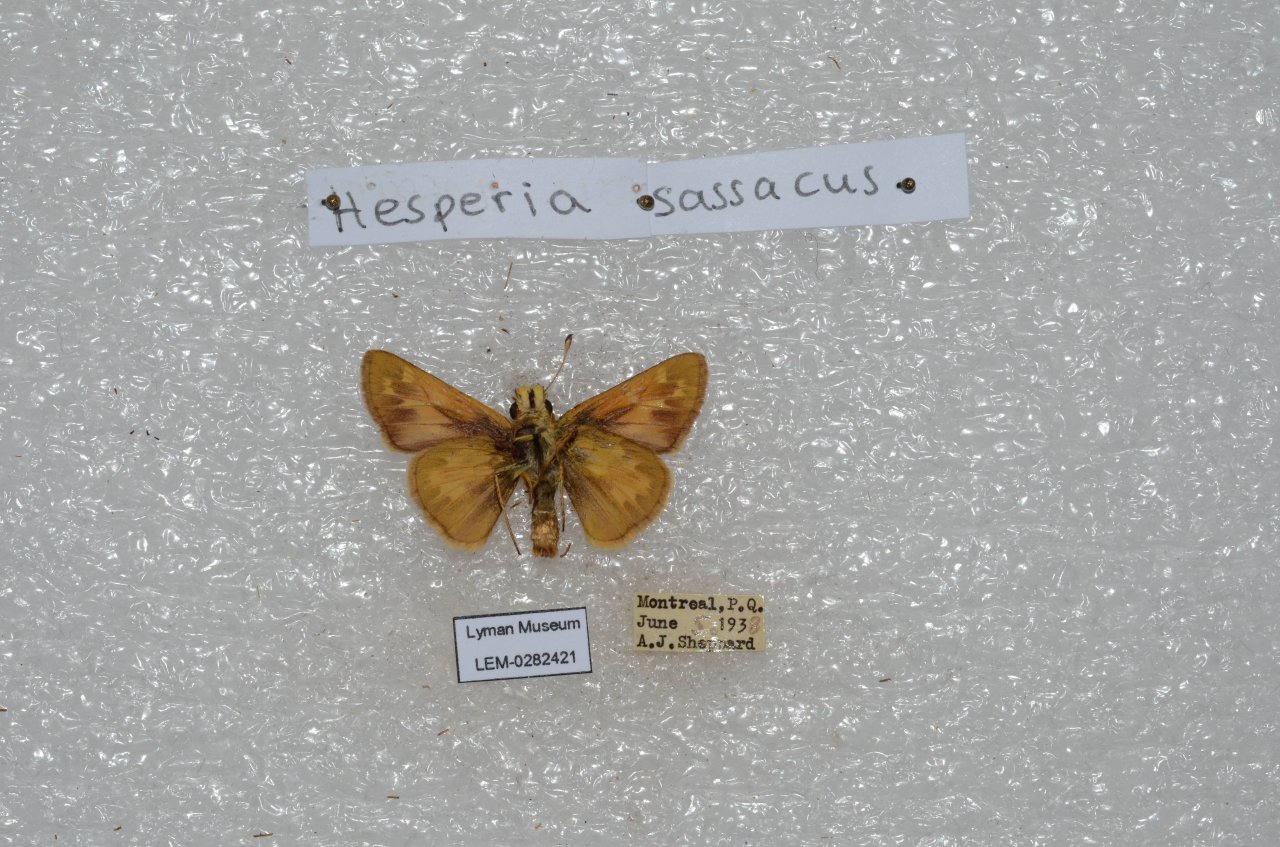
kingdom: Animalia
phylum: Arthropoda
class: Insecta
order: Lepidoptera
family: Hesperiidae
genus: Hesperia
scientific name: Hesperia sassacus
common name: Sassacus Skipper
